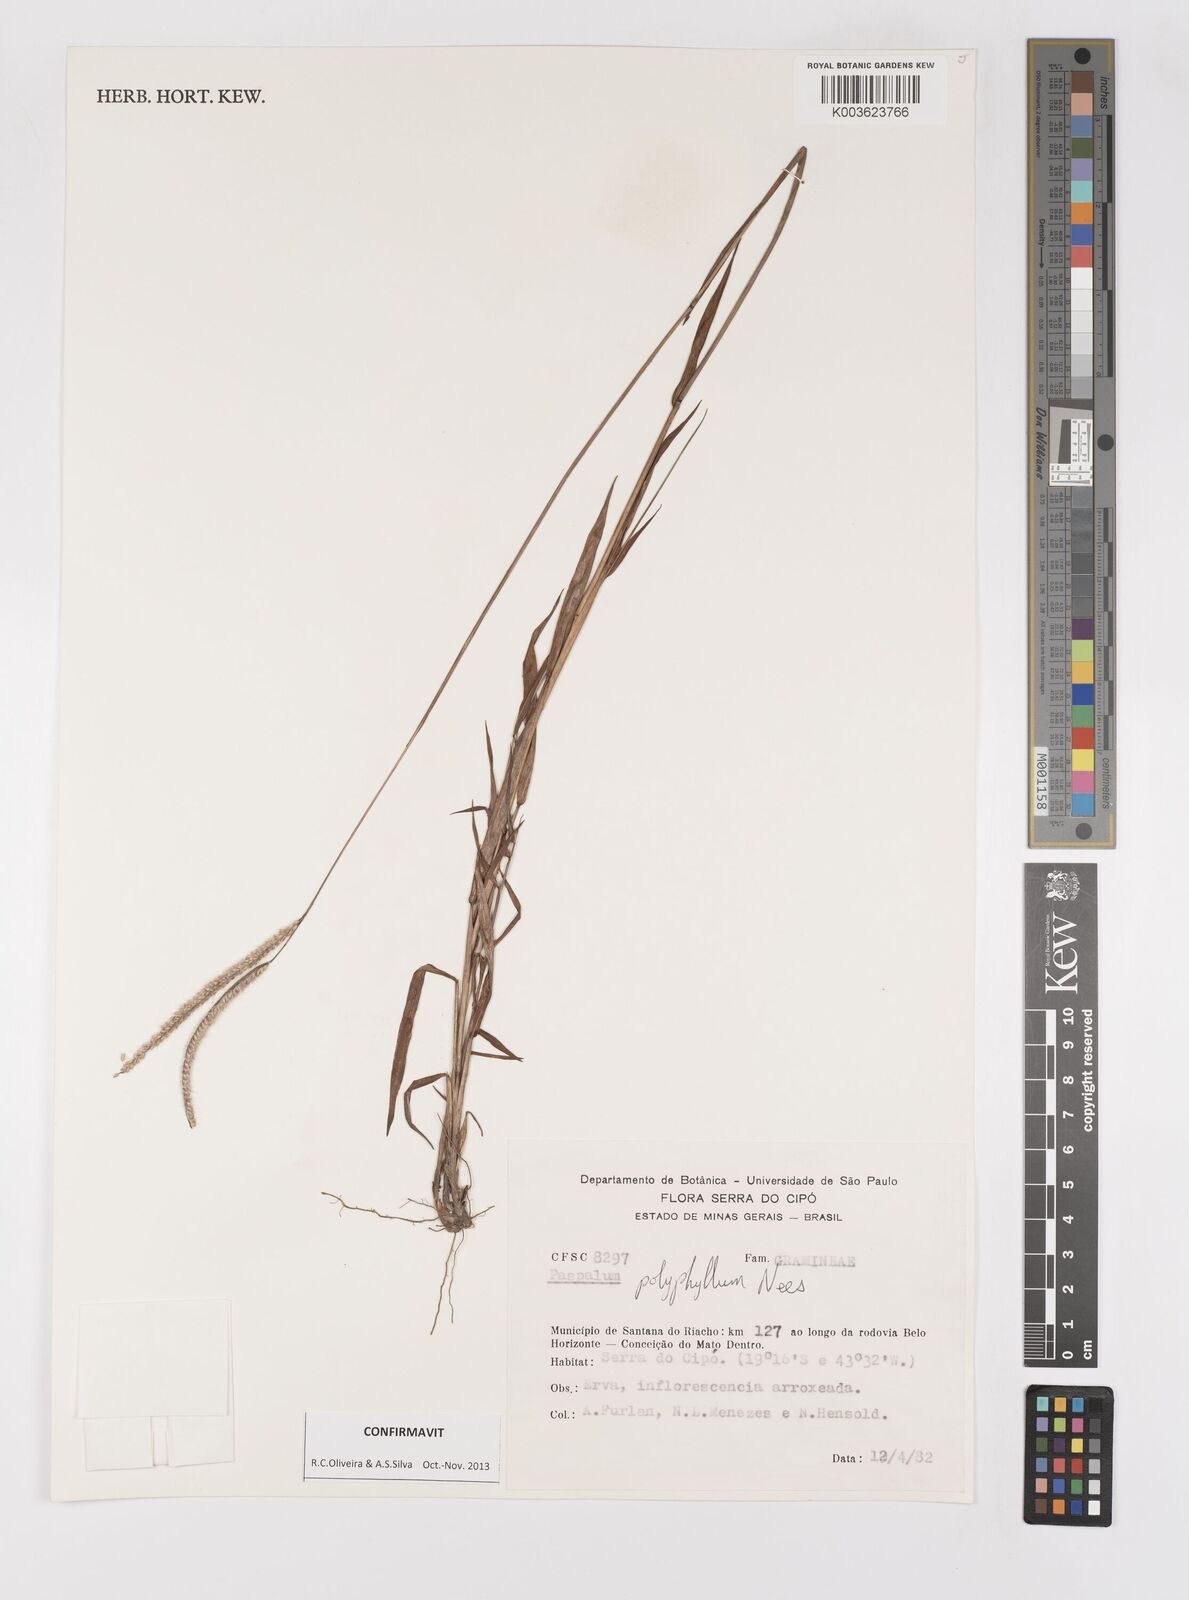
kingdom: Plantae
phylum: Tracheophyta
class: Liliopsida
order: Poales
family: Poaceae
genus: Paspalum
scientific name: Paspalum polyphyllum
